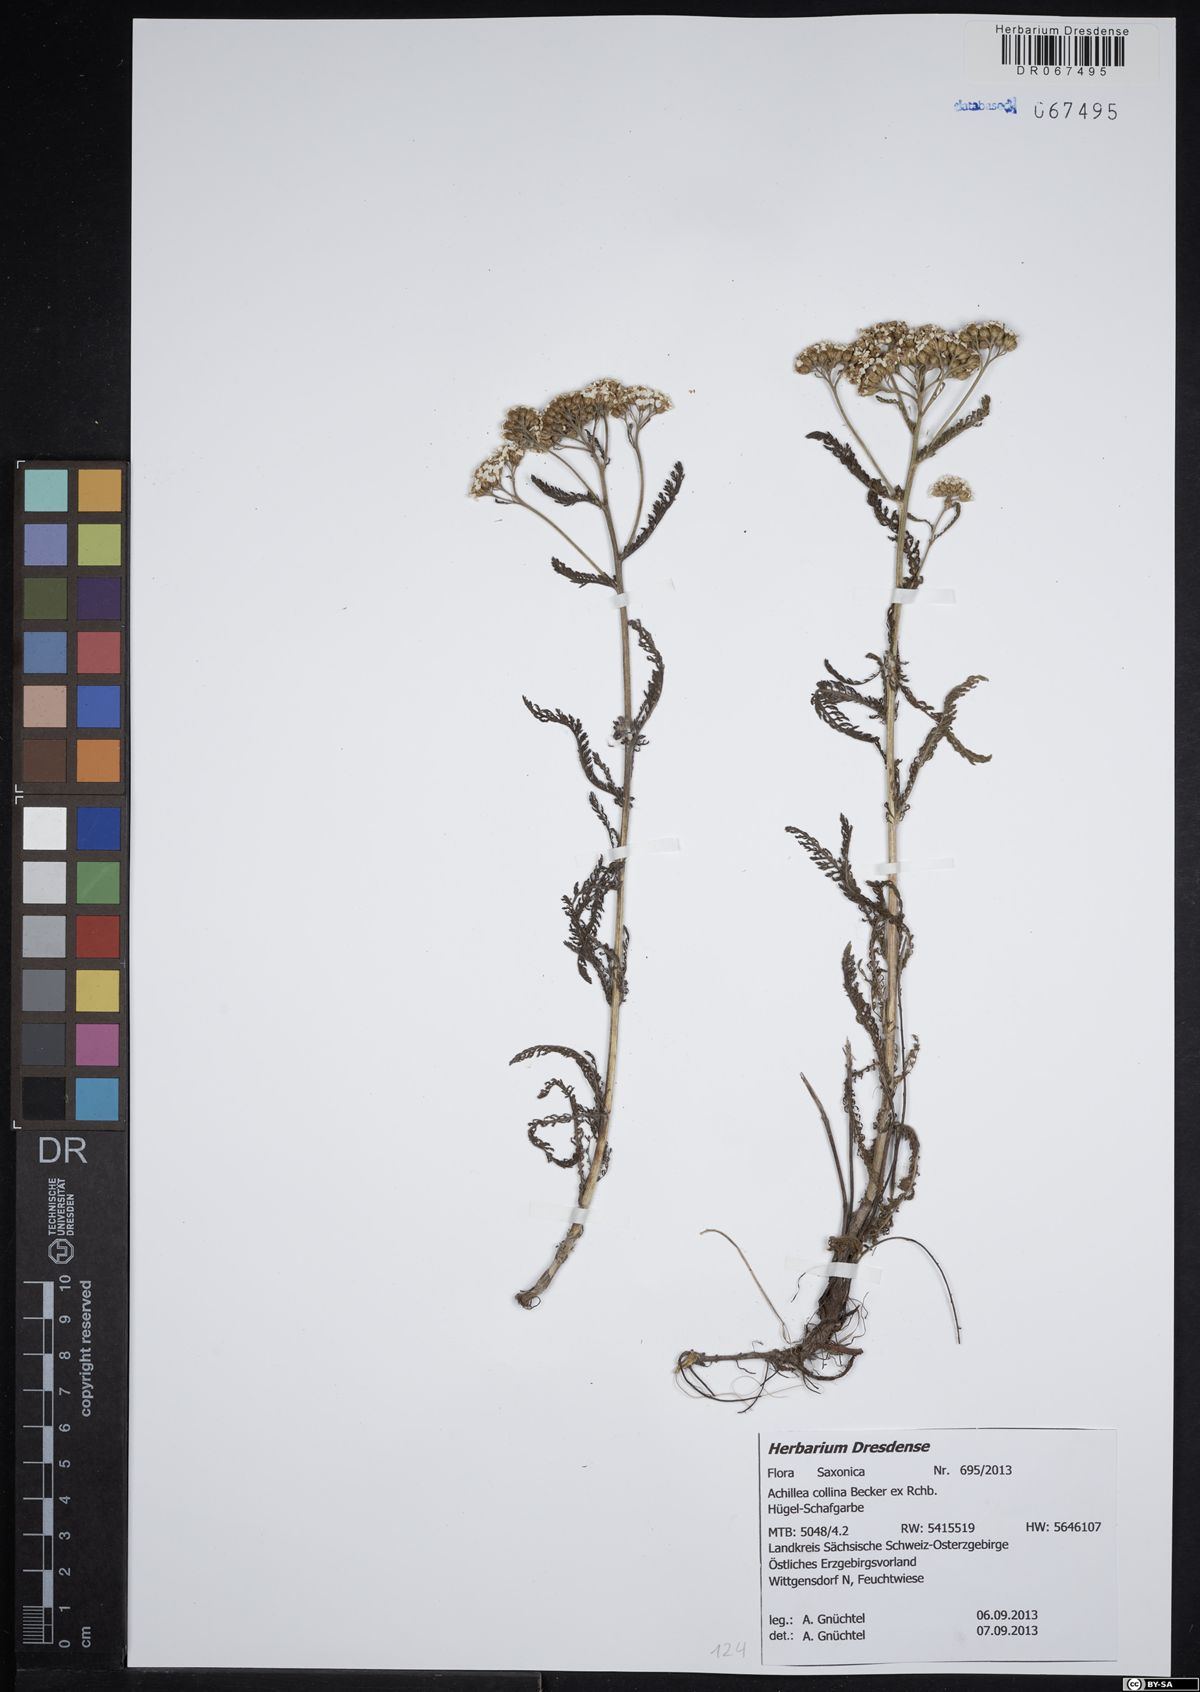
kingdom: Plantae
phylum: Tracheophyta
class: Magnoliopsida
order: Asterales
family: Asteraceae
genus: Achillea
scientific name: Achillea collina
